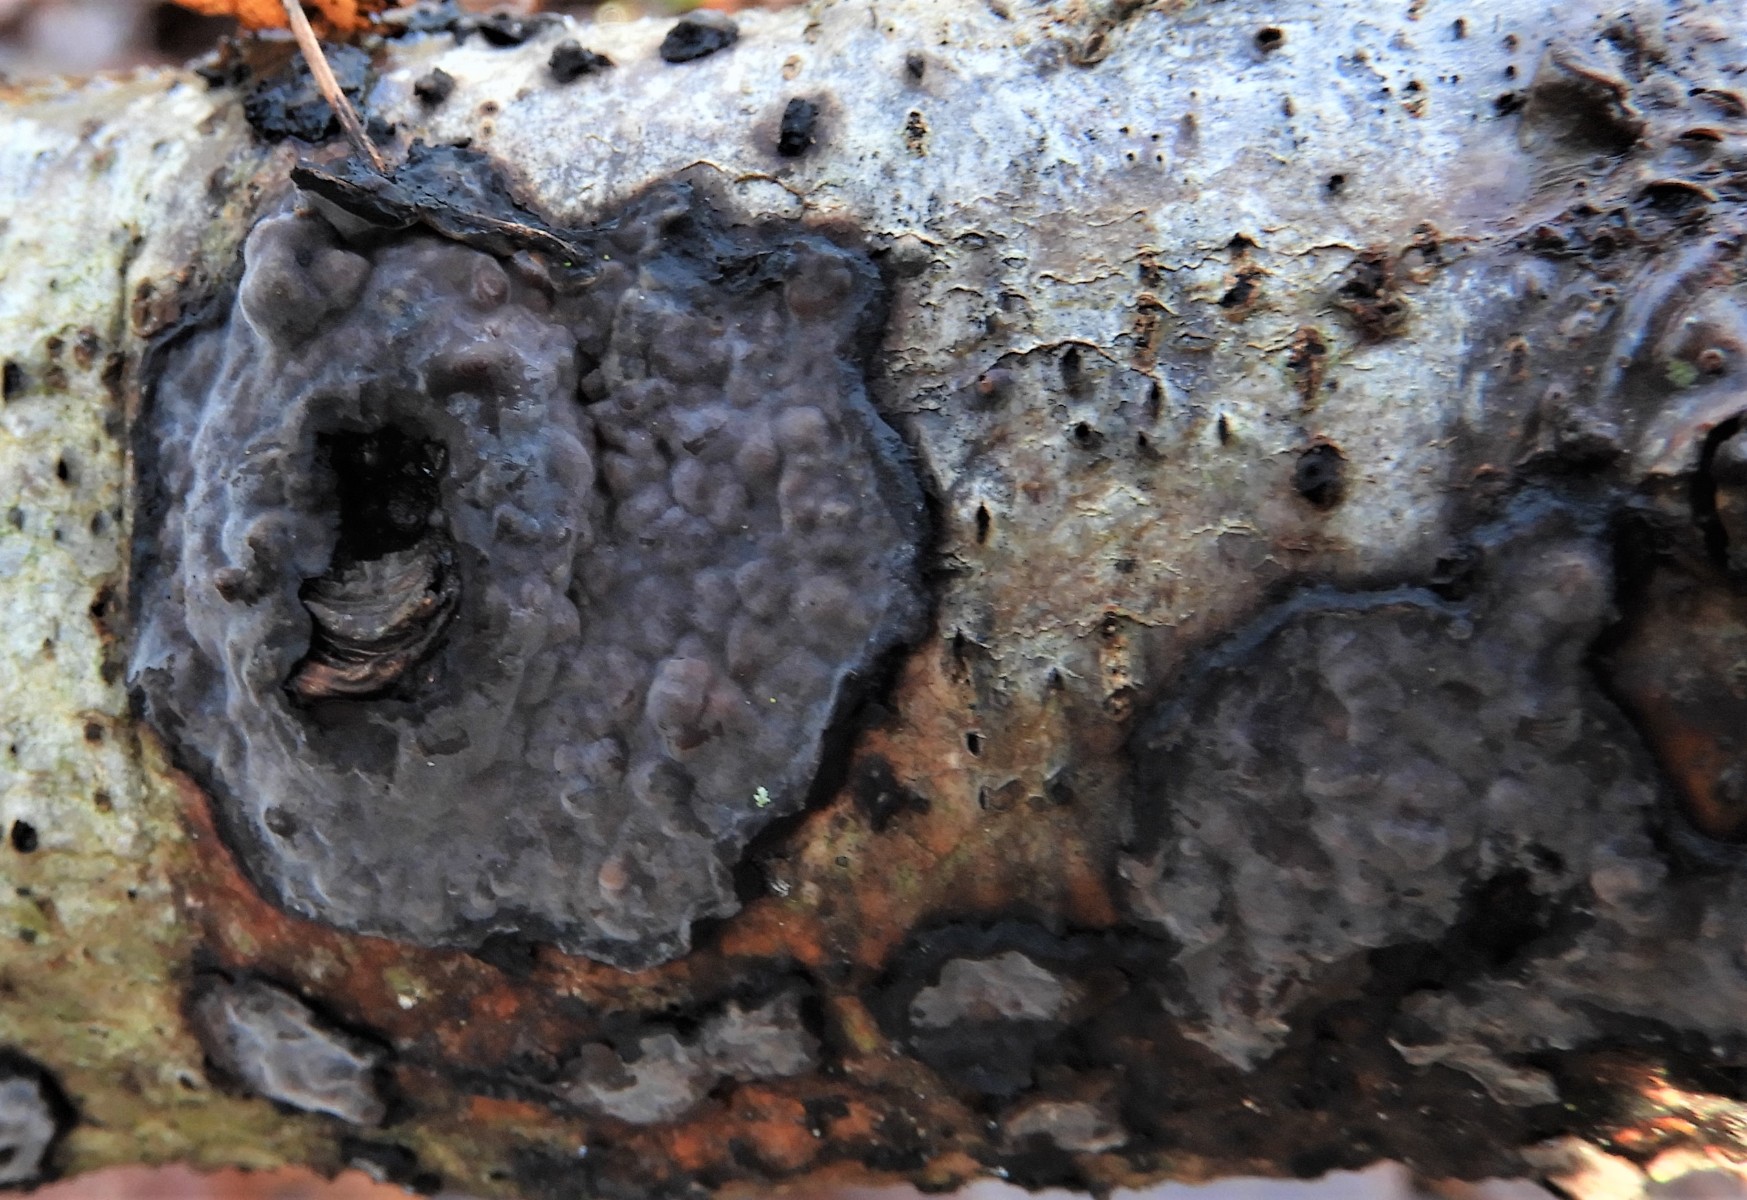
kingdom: Fungi
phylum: Basidiomycota
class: Agaricomycetes
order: Russulales
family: Peniophoraceae
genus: Peniophora
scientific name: Peniophora limitata
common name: mørkrandet voksskind
